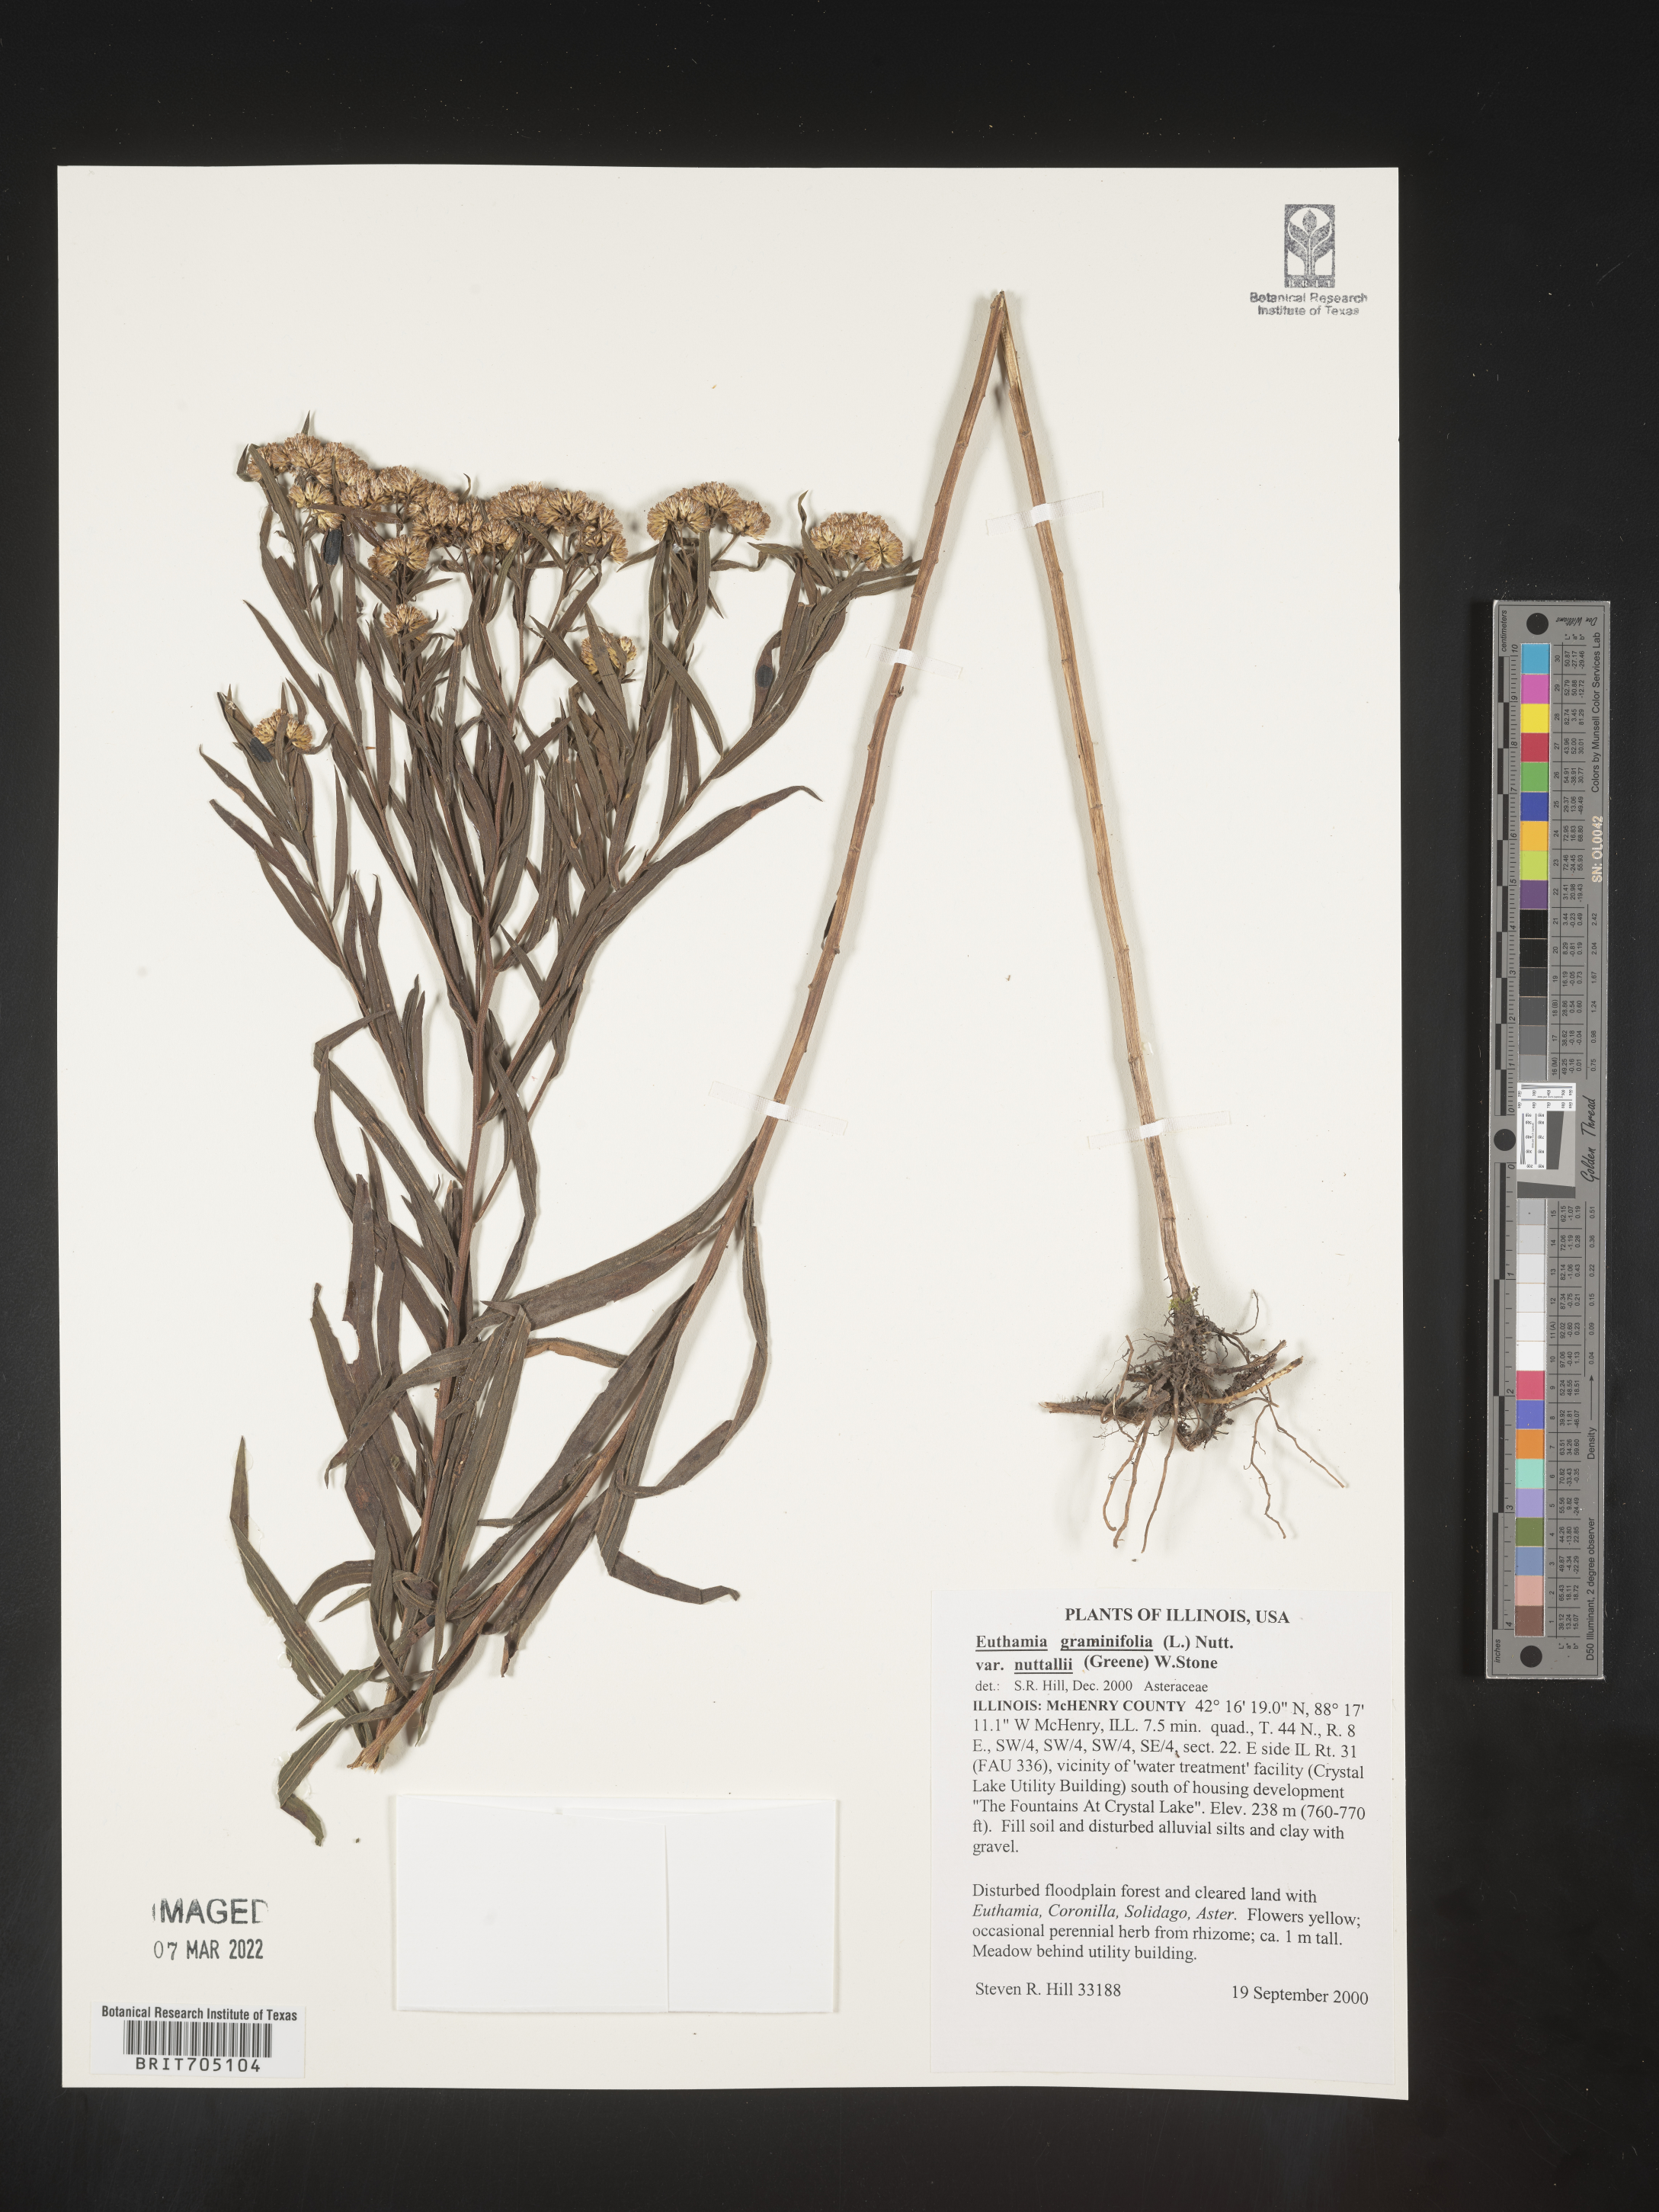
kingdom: Plantae
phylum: Tracheophyta
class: Magnoliopsida
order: Asterales
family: Asteraceae
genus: Euthamia
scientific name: Euthamia graminifolia
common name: Common goldentop
